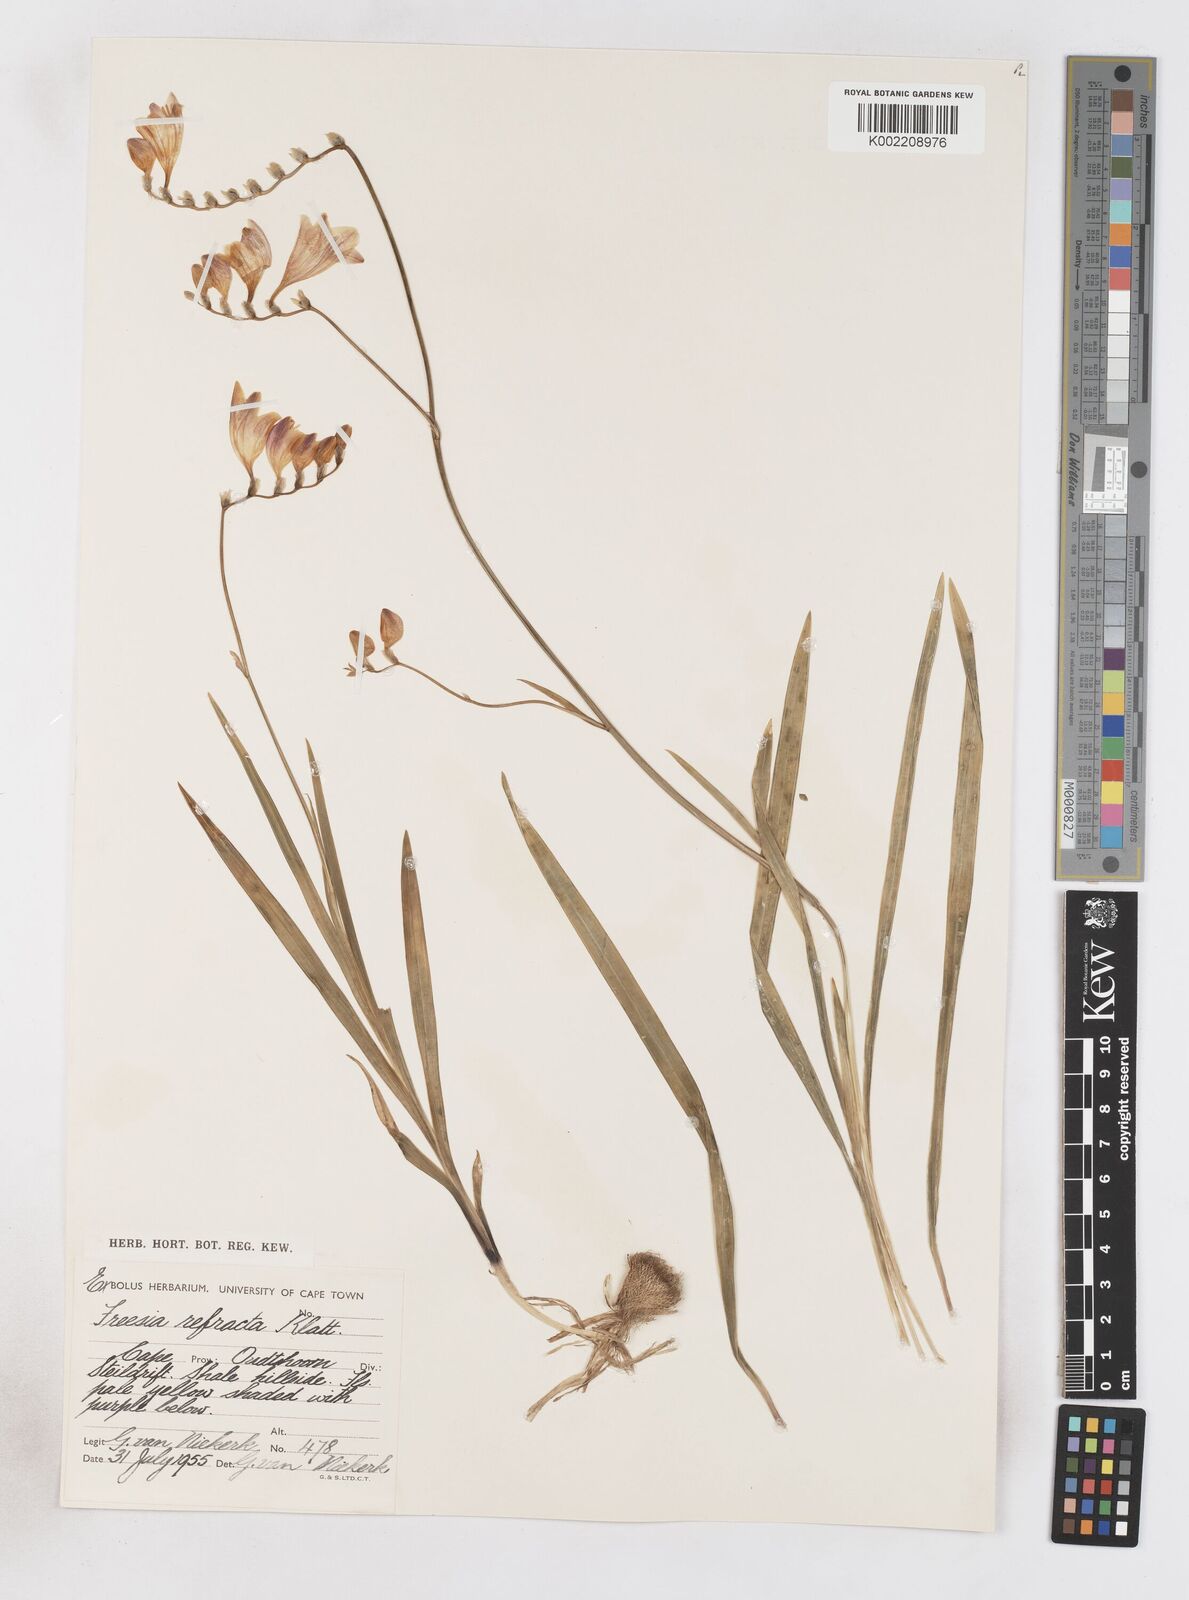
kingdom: Plantae
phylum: Tracheophyta
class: Liliopsida
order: Asparagales
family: Iridaceae
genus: Freesia
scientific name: Freesia refracta
